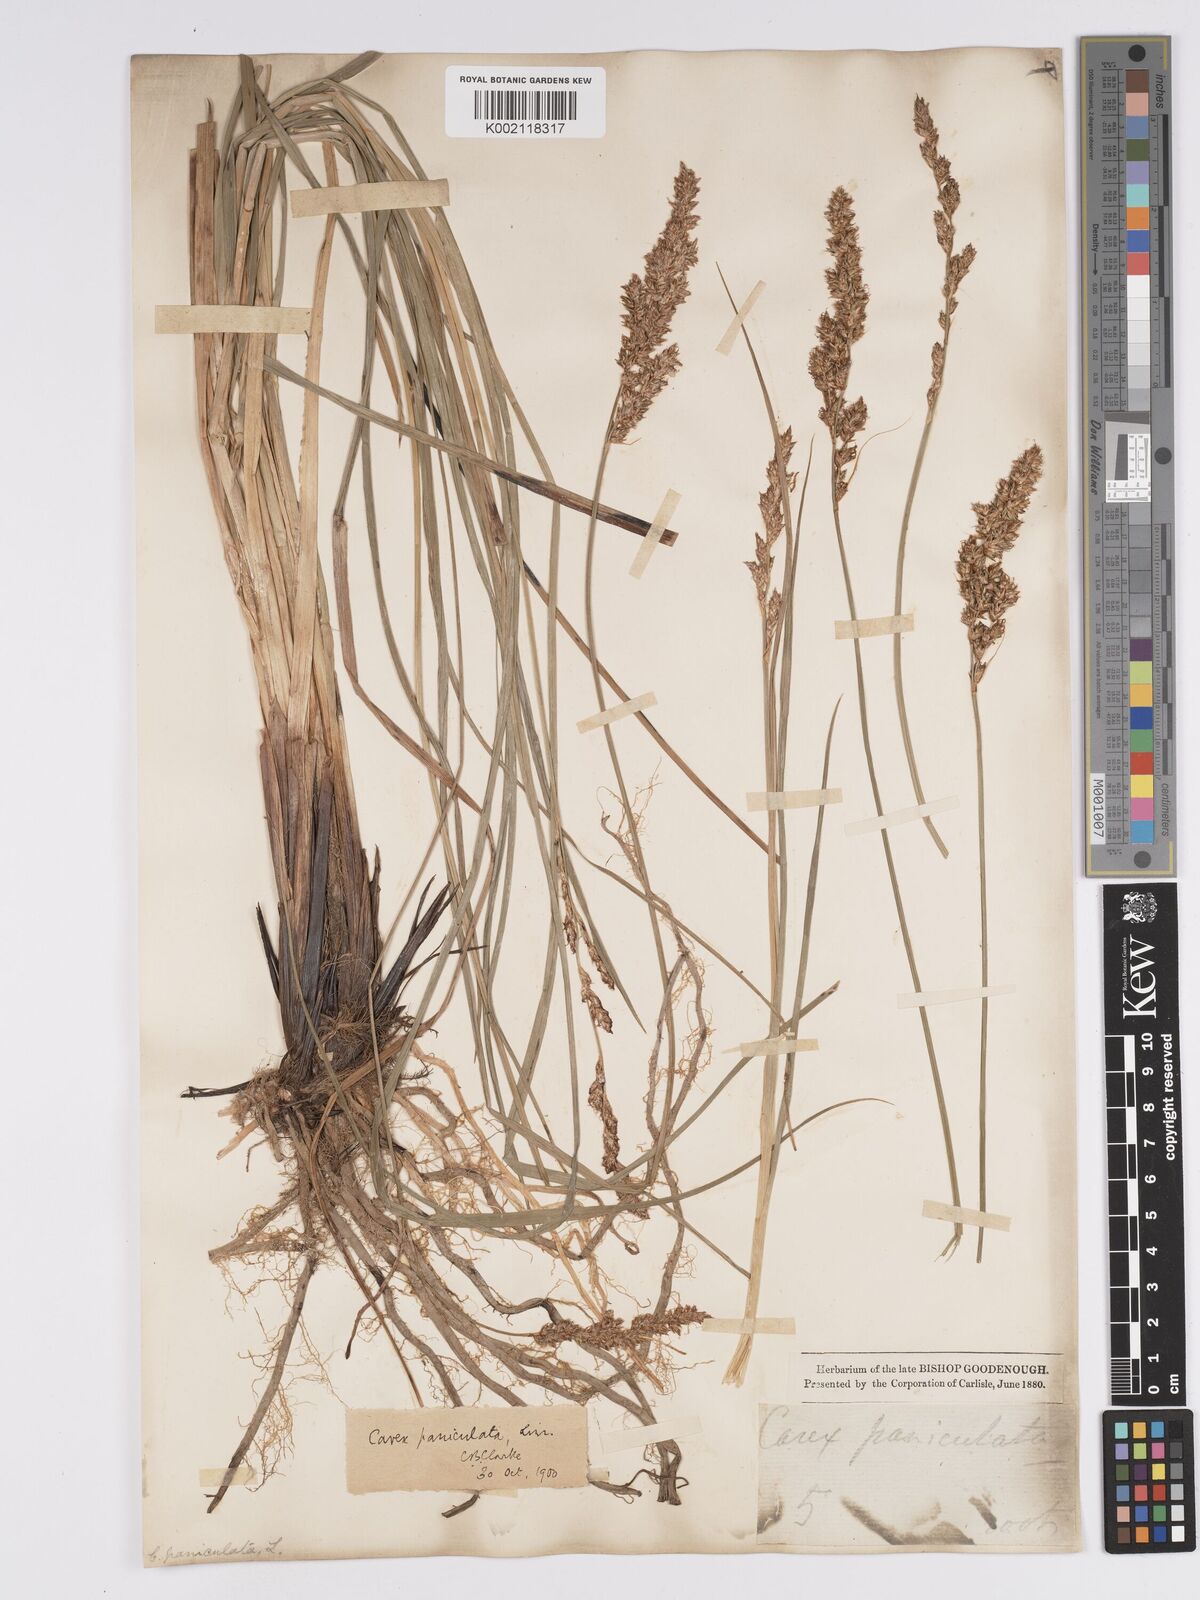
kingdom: Plantae
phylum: Tracheophyta
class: Liliopsida
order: Poales
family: Cyperaceae
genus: Carex
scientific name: Carex paniculata
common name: Greater tussock-sedge
